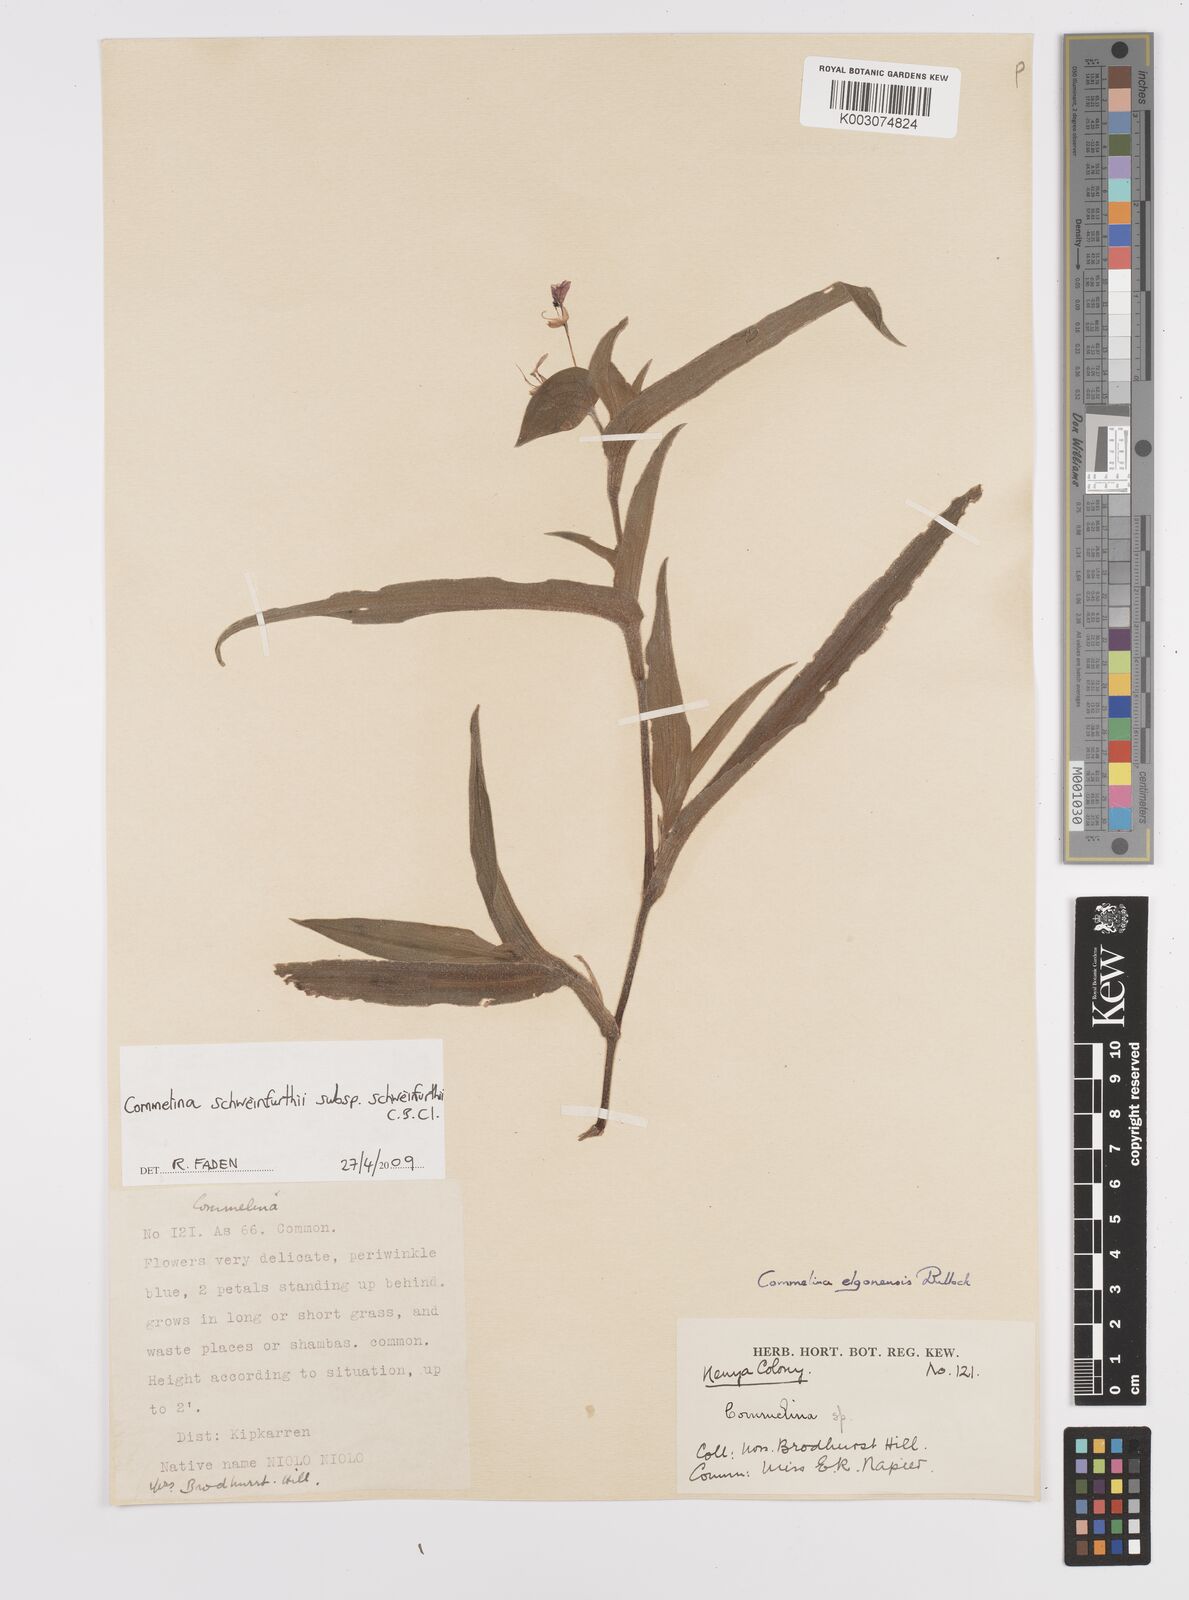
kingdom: Plantae
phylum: Tracheophyta
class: Liliopsida
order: Commelinales
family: Commelinaceae
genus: Commelina
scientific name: Commelina schweinfurthii
